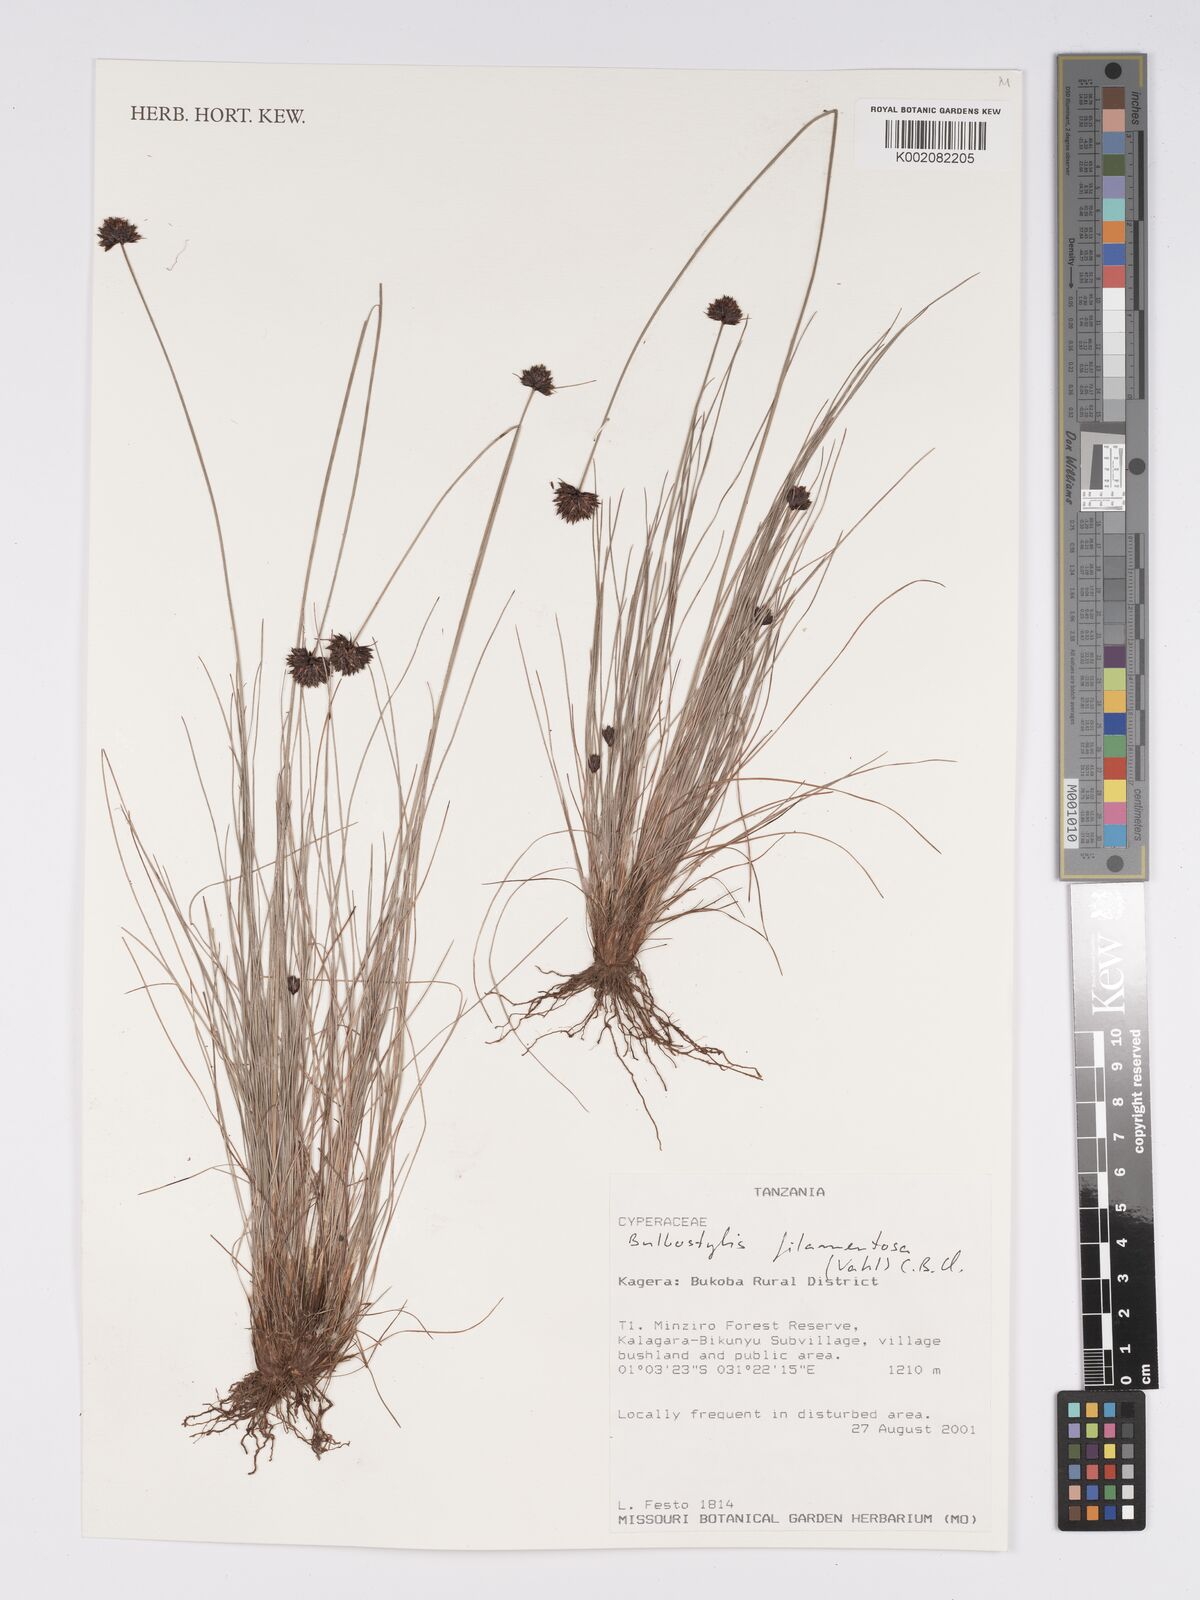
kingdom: Plantae
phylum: Tracheophyta
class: Liliopsida
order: Poales
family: Cyperaceae
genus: Bulbostylis
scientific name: Bulbostylis filamentosa
